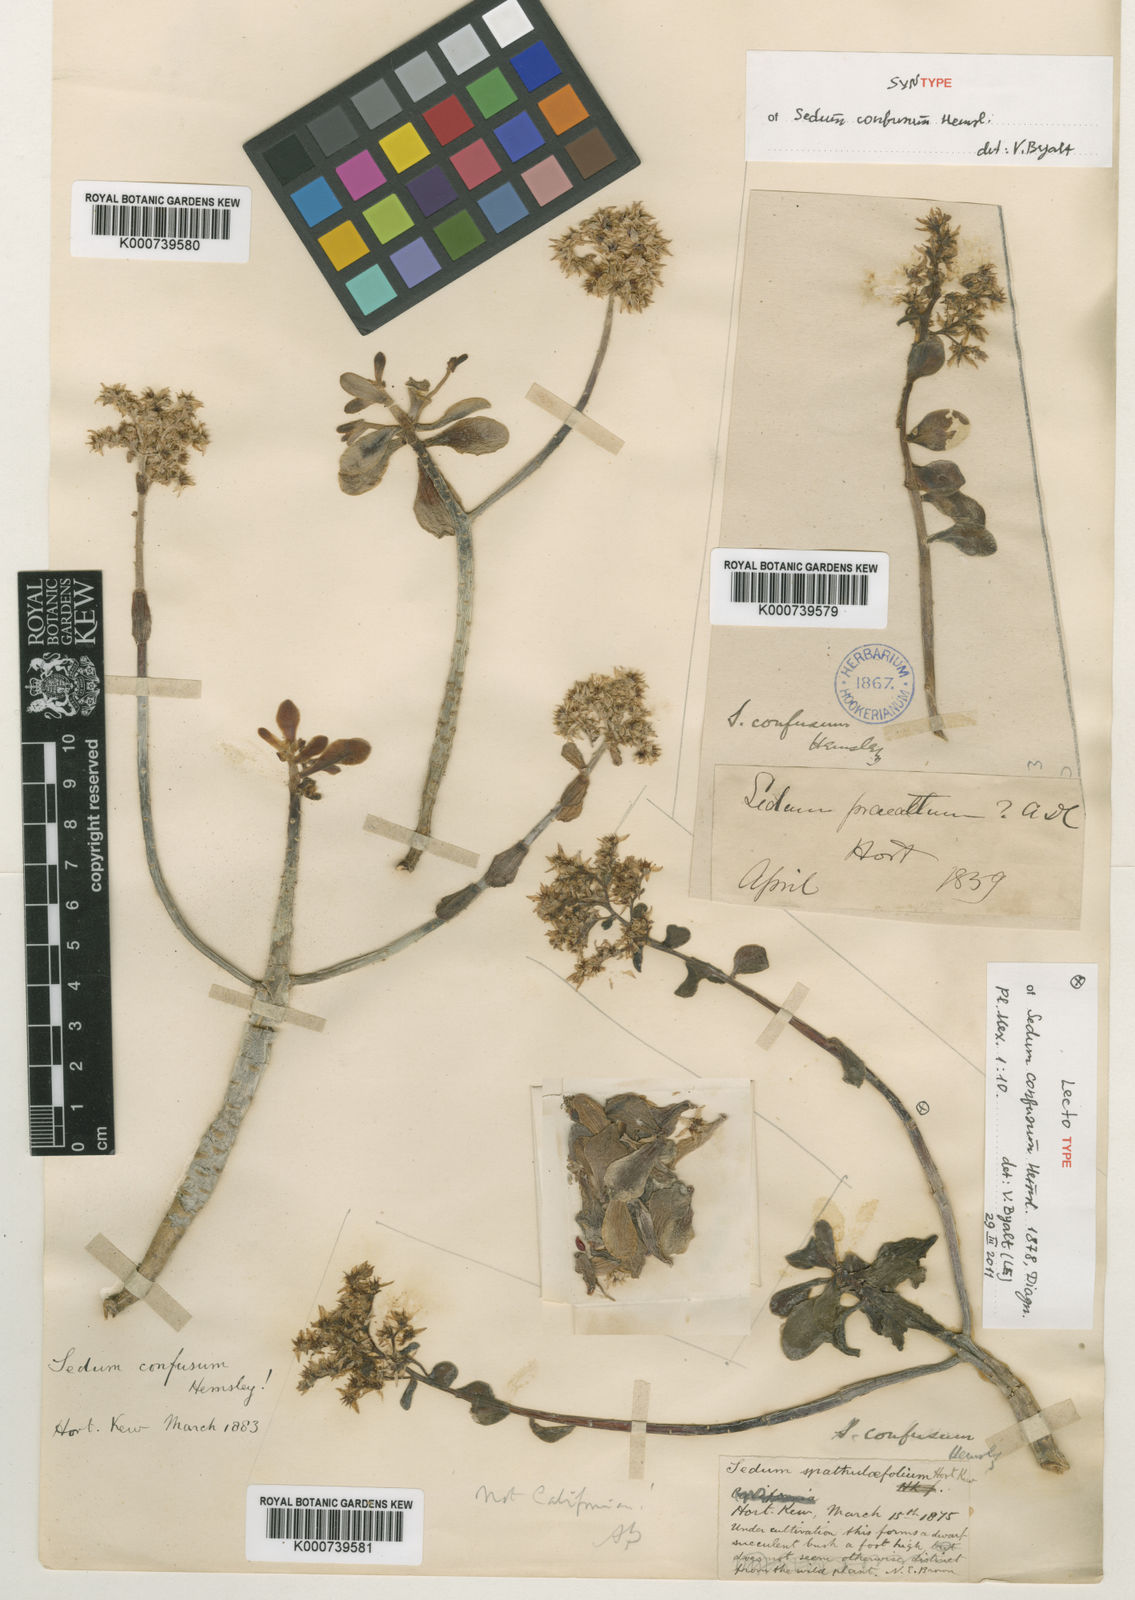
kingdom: Plantae
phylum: Tracheophyta
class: Magnoliopsida
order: Saxifragales
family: Crassulaceae
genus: Sedum
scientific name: Sedum confusum
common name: Lesser mexican-stonecrop
